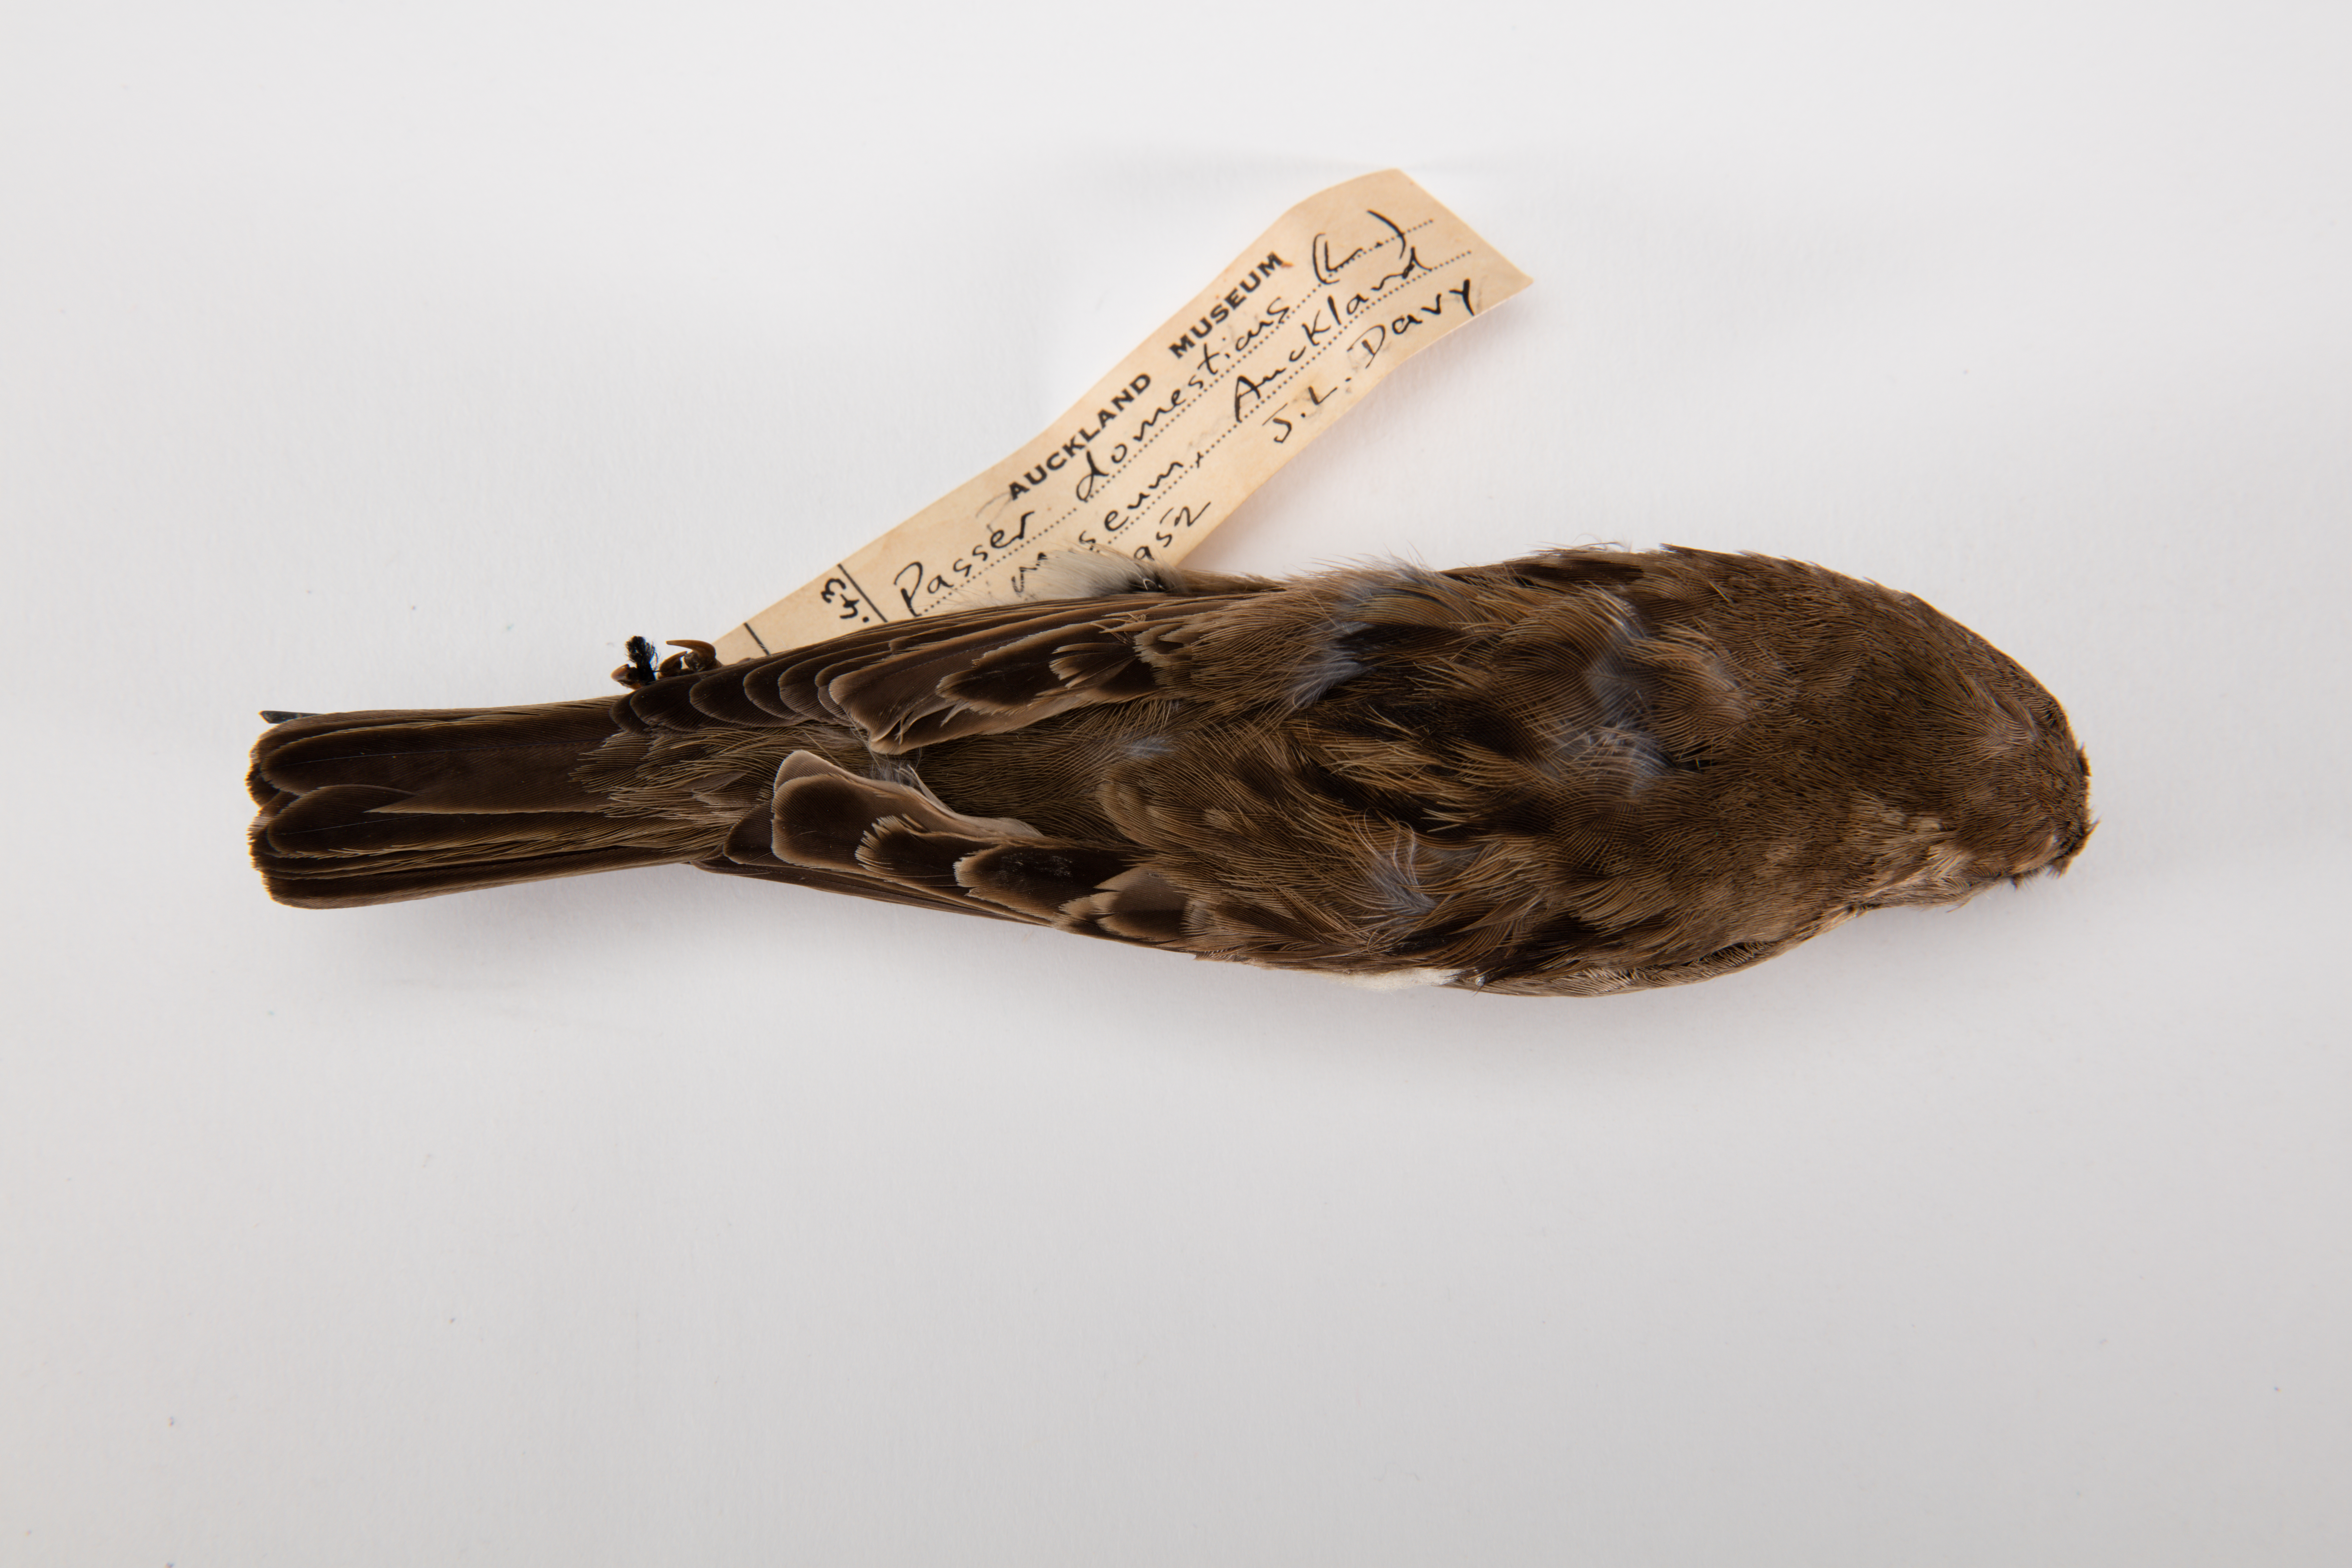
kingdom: Animalia
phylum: Chordata
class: Aves
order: Passeriformes
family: Passeridae
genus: Passer
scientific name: Passer domesticus
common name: House sparrow
